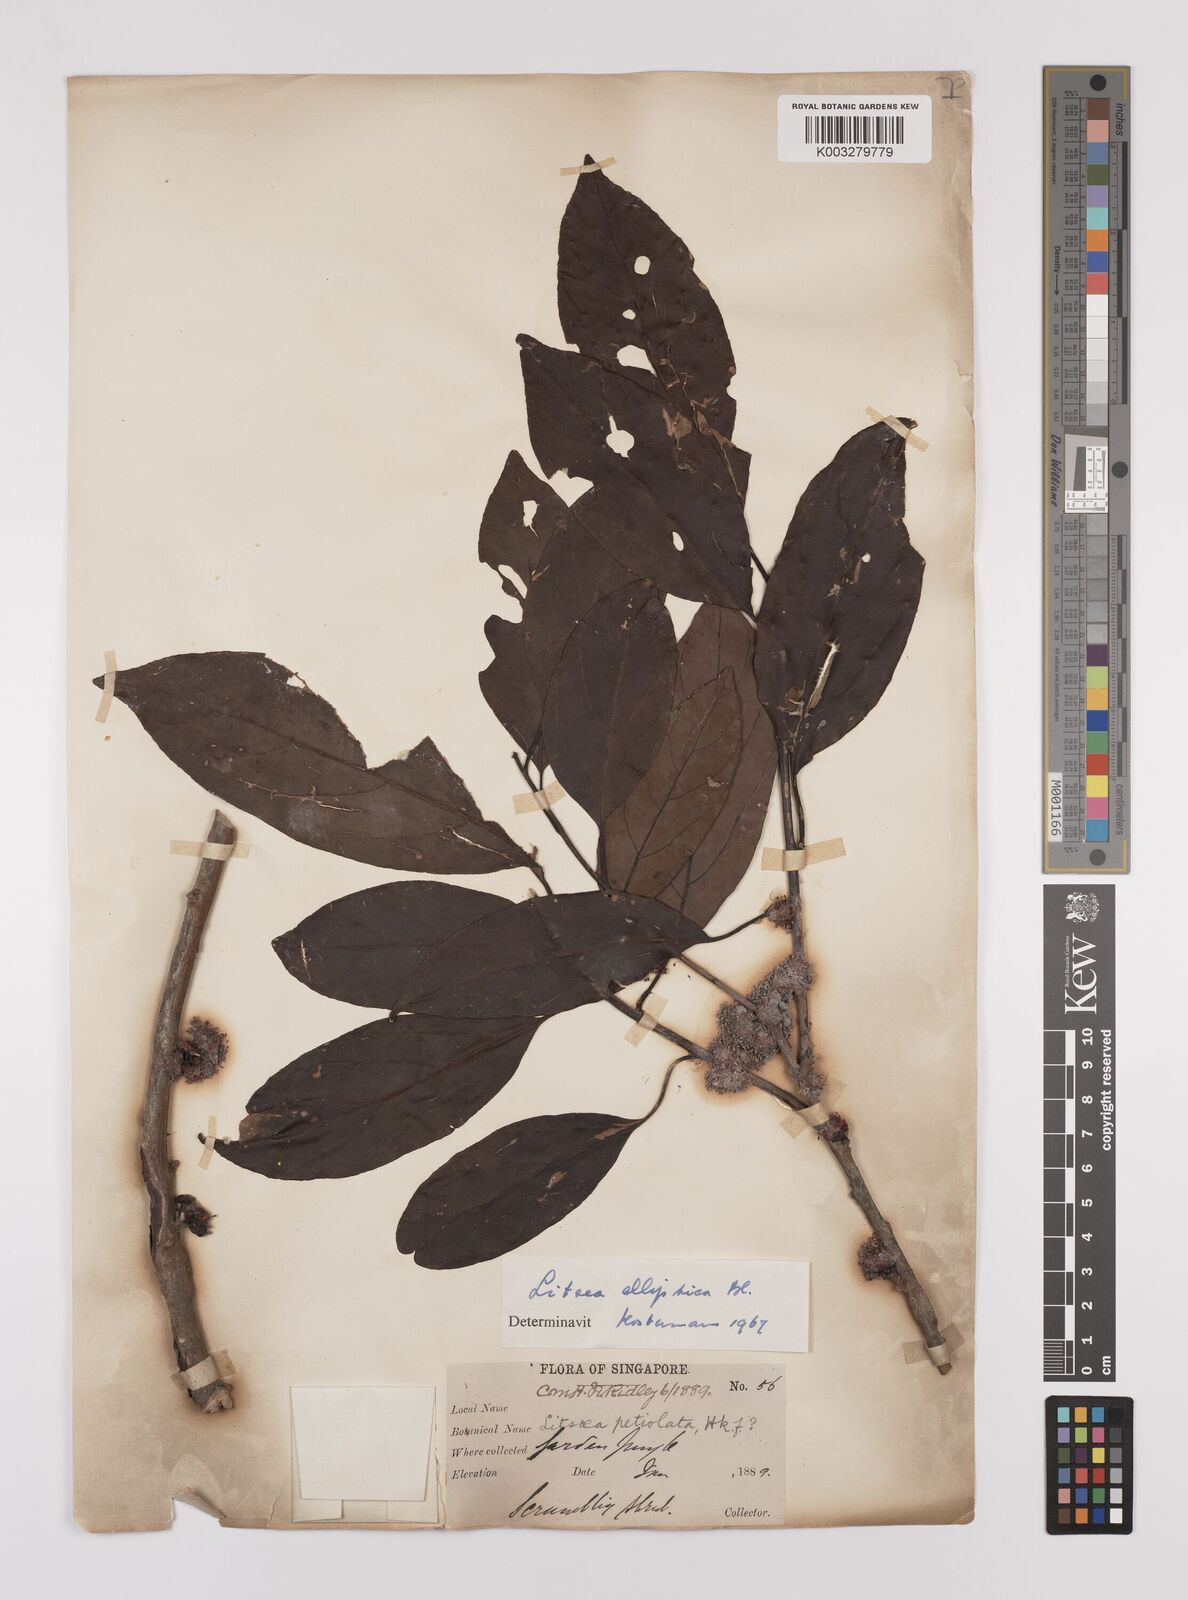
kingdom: Plantae
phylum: Tracheophyta
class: Magnoliopsida
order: Laurales
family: Lauraceae
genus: Litsea
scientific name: Litsea elliptica
